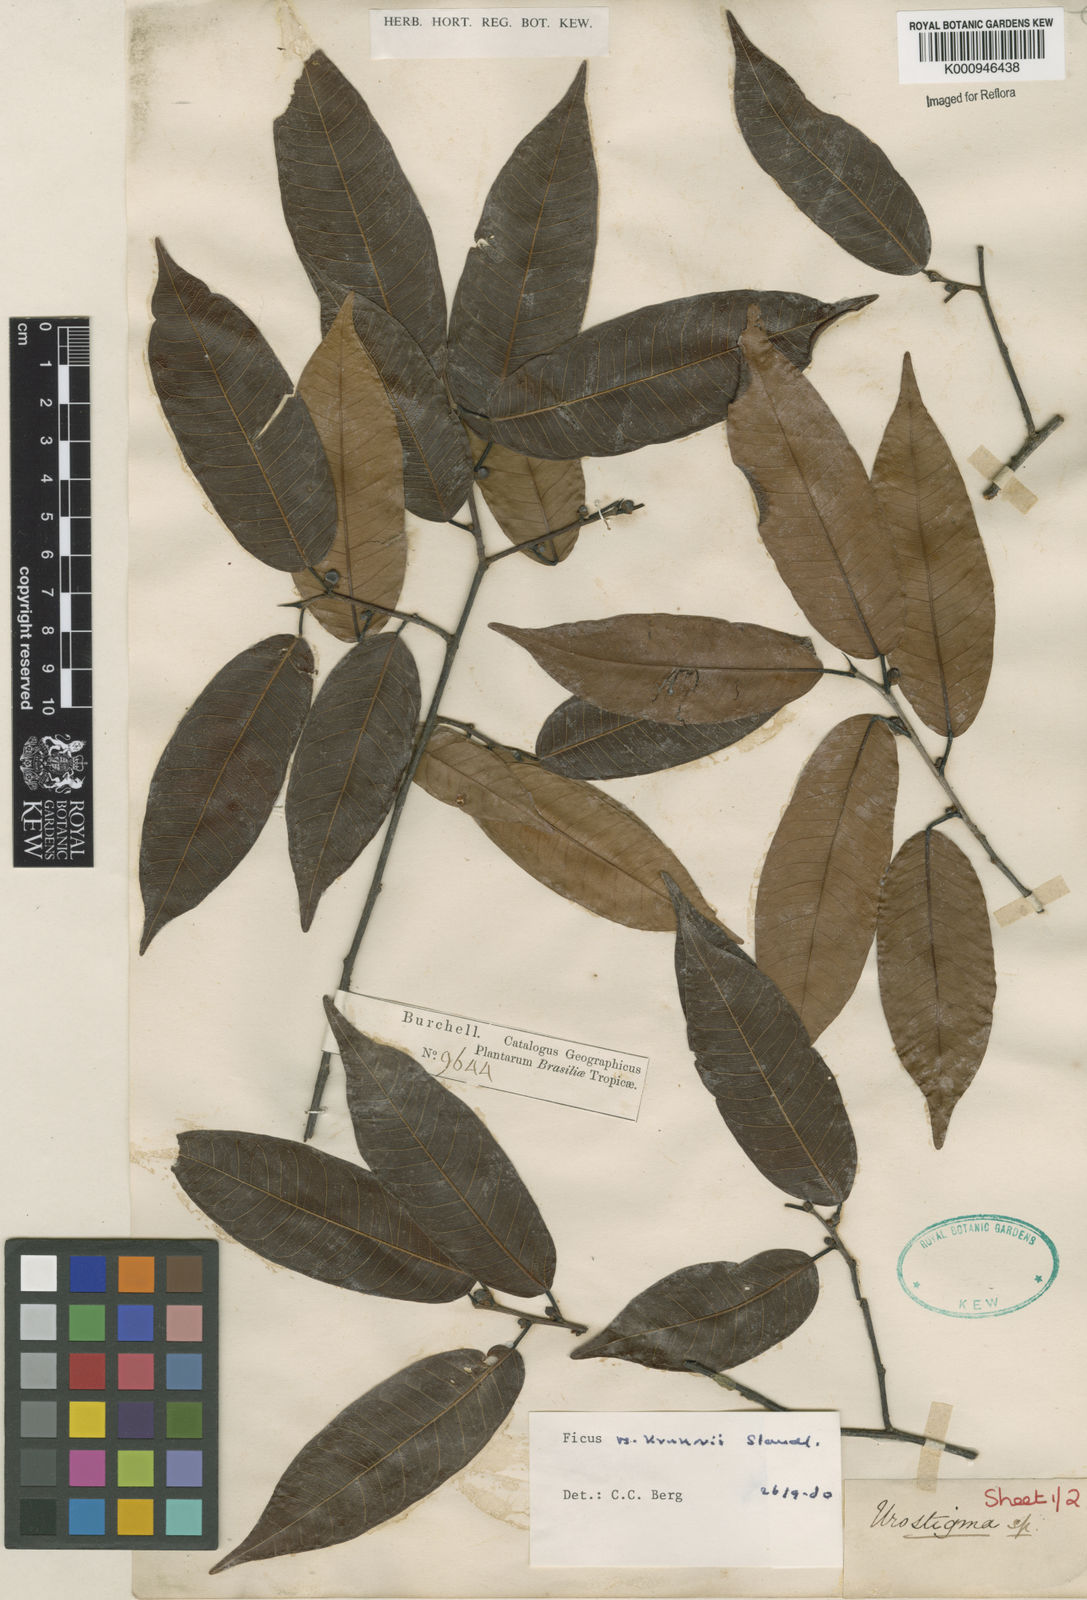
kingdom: Plantae
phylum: Tracheophyta
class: Magnoliopsida
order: Rosales
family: Moraceae
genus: Ficus
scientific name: Ficus krukovii
